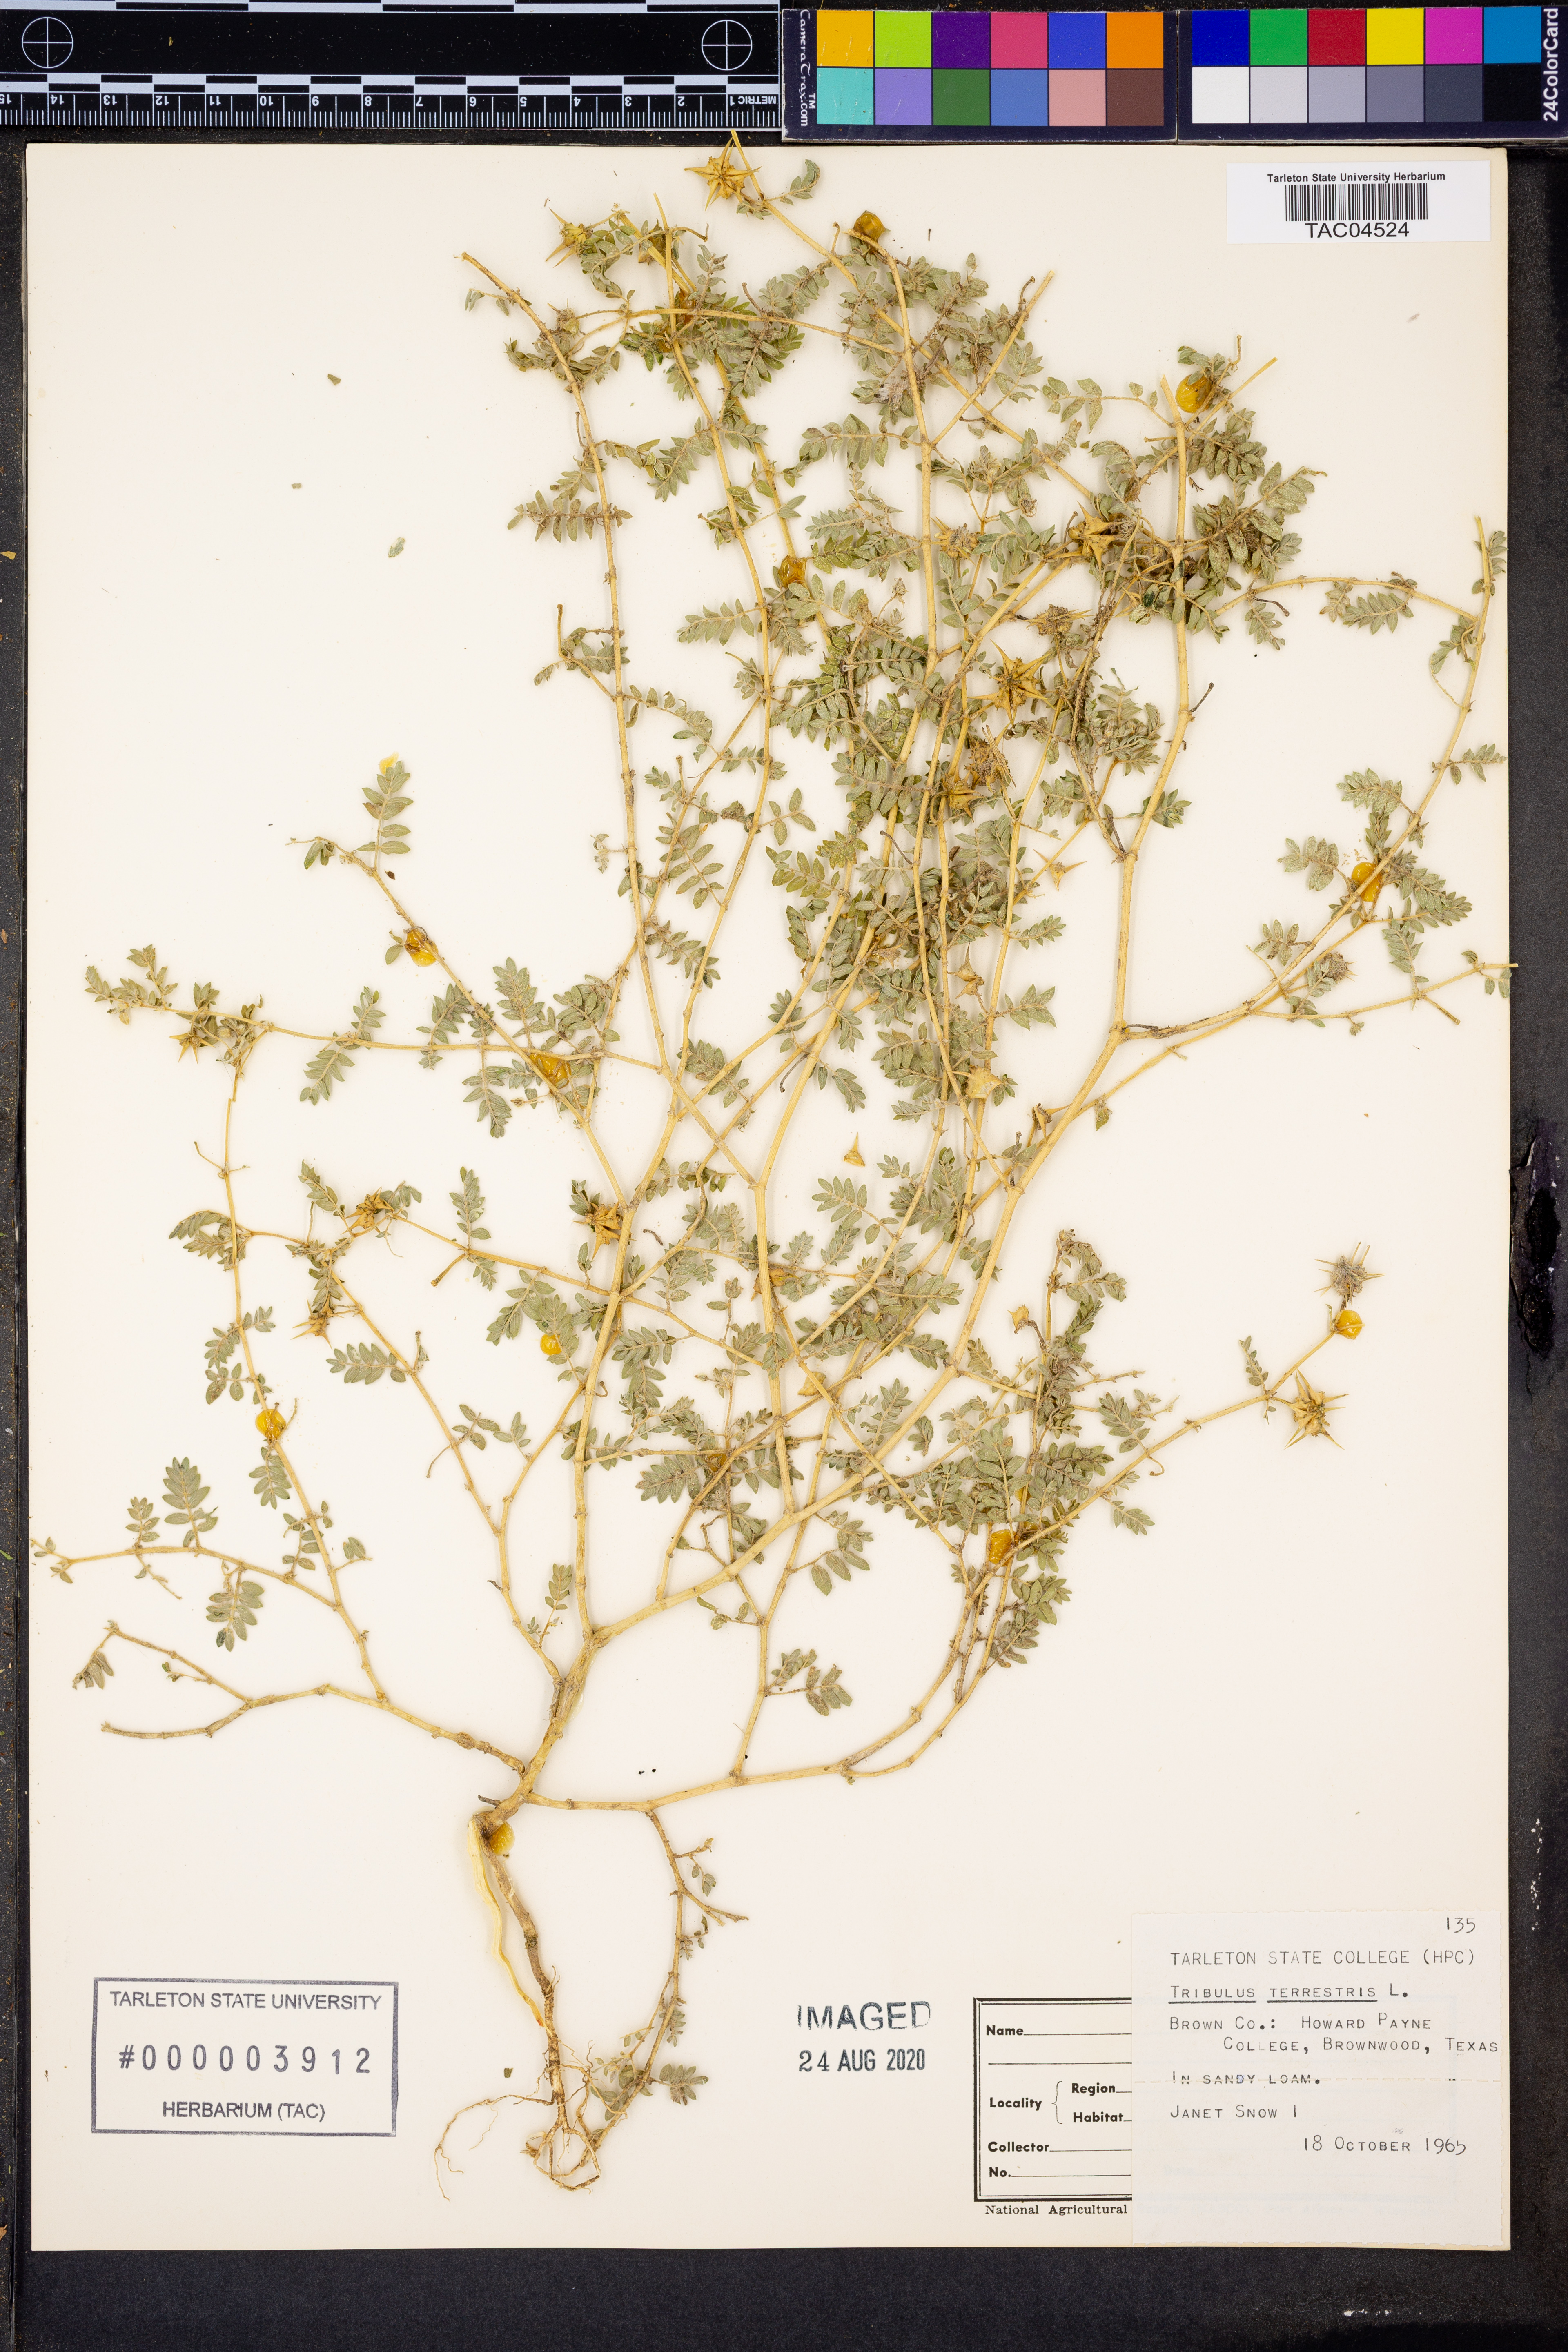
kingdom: Plantae
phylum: Tracheophyta
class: Magnoliopsida
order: Zygophyllales
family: Zygophyllaceae
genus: Tribulus
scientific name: Tribulus terrestris
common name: Puncturevine
